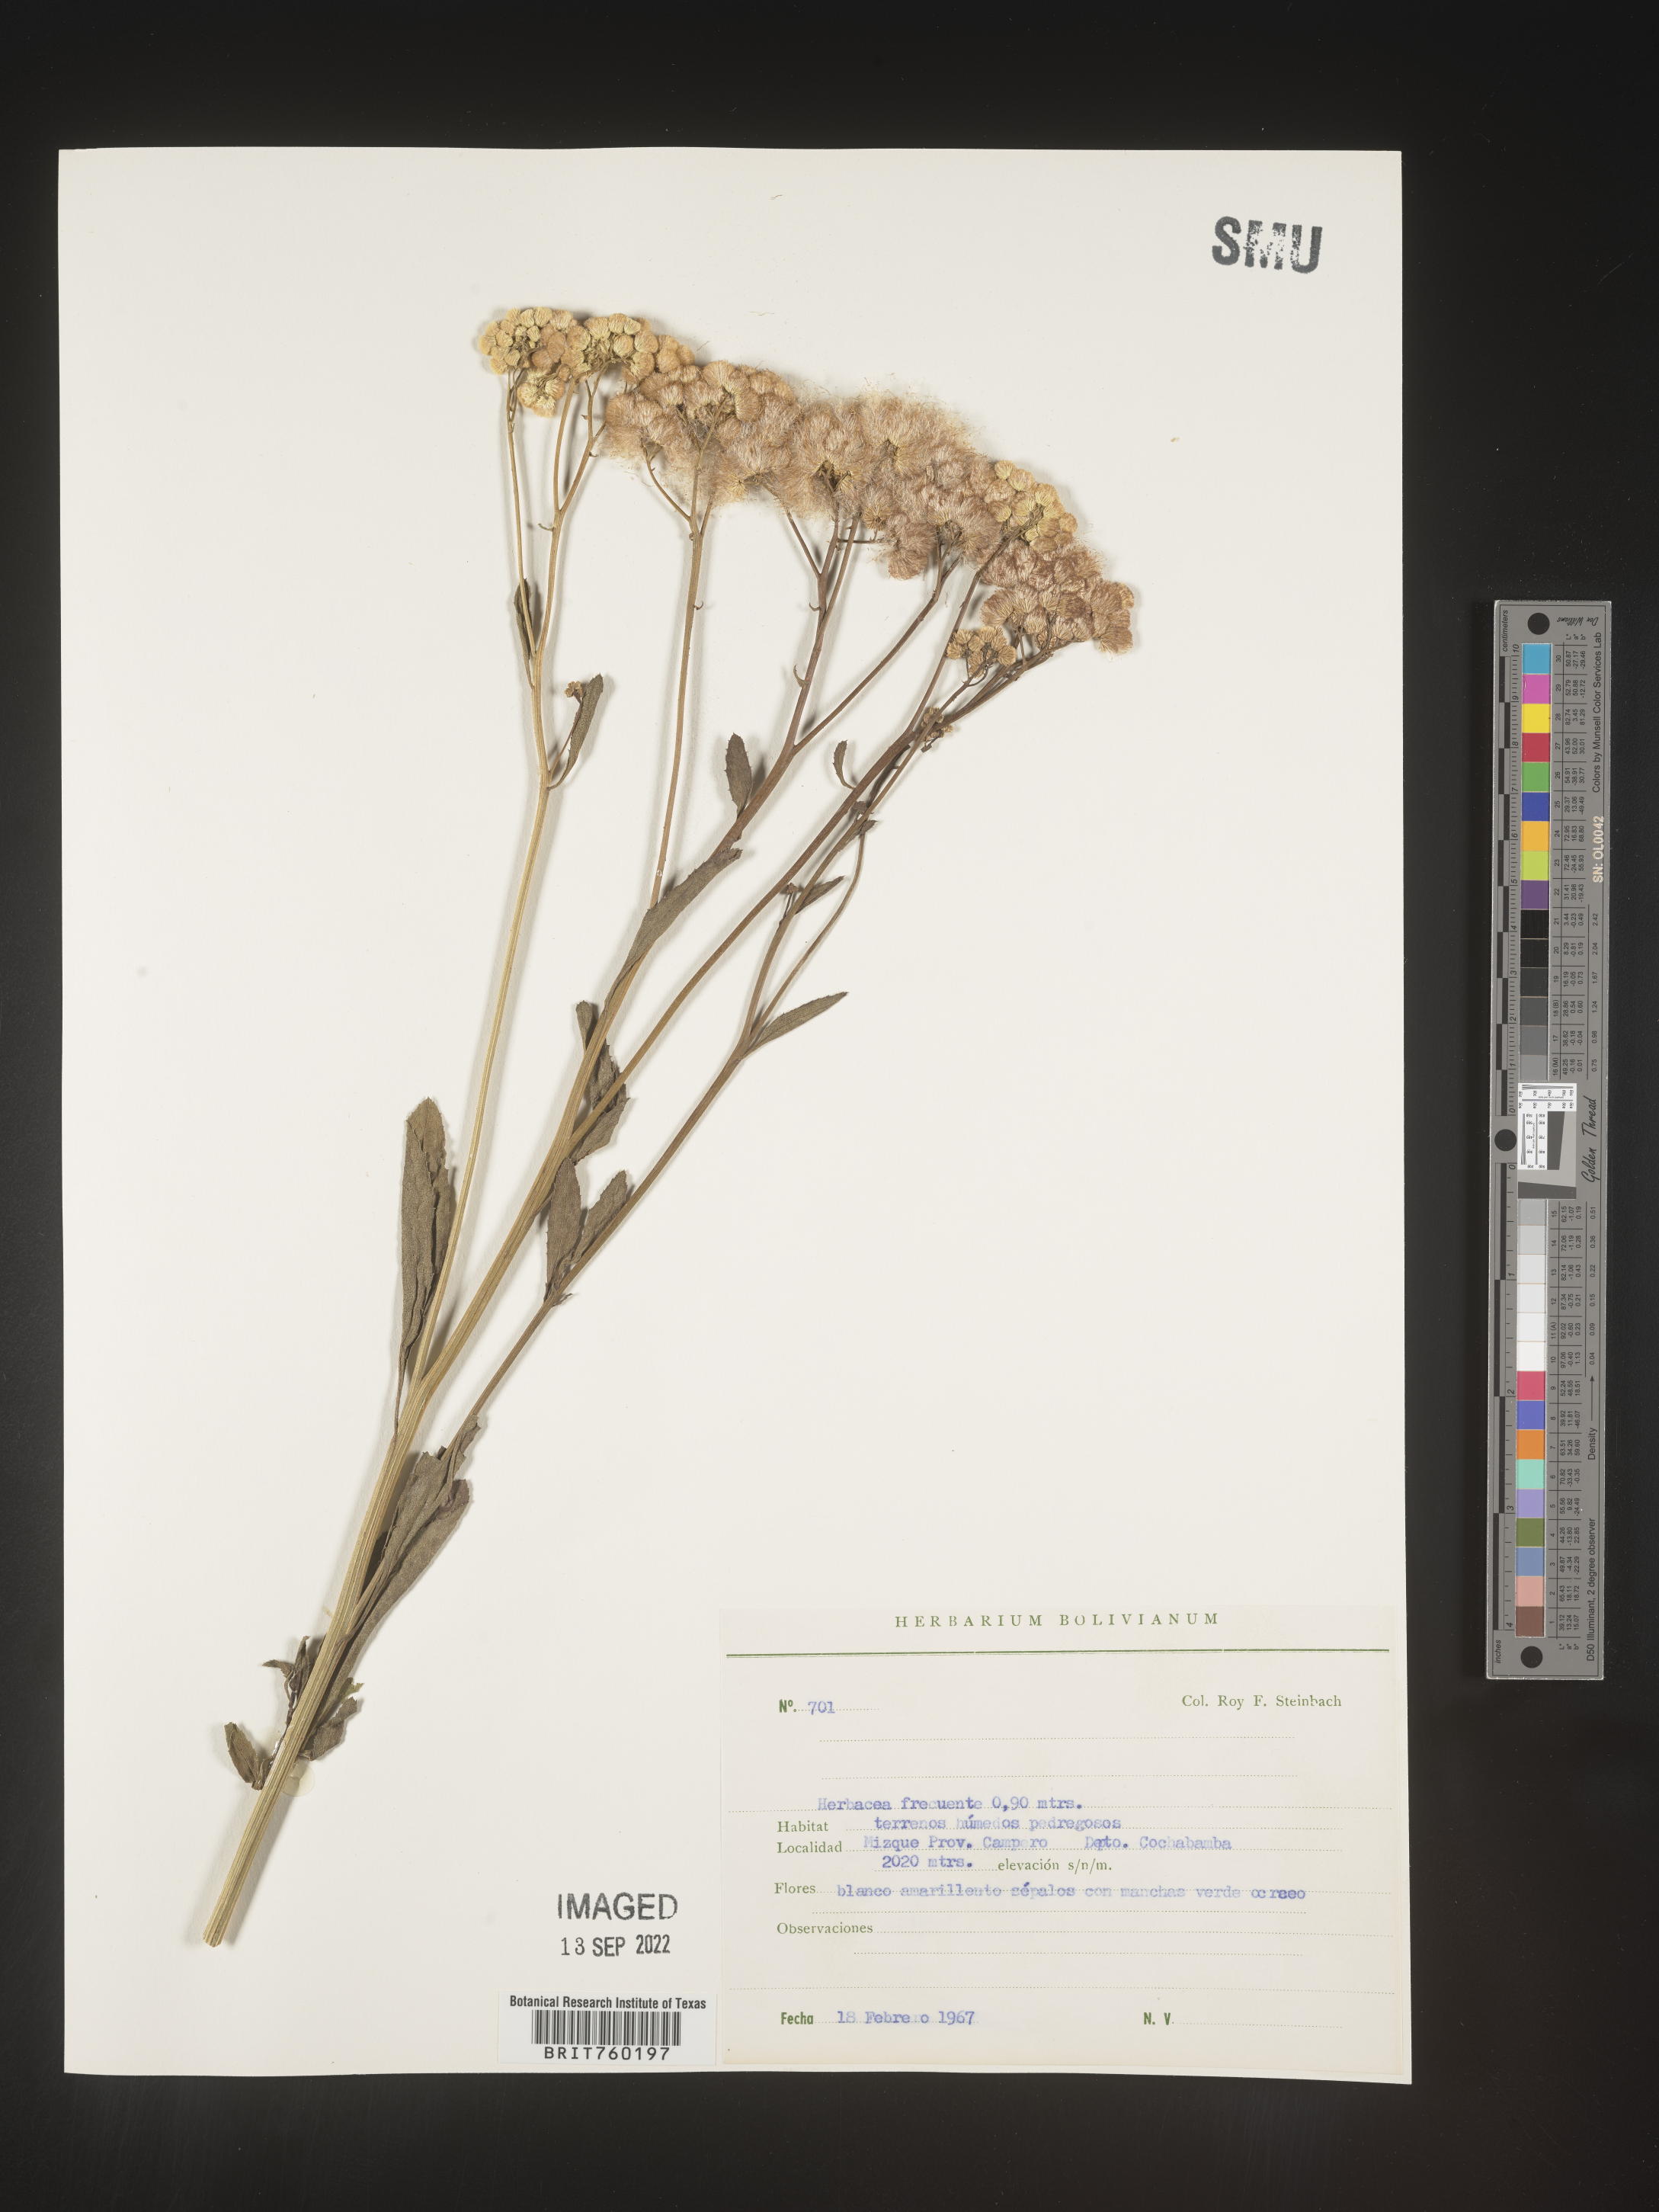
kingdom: Plantae
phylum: Tracheophyta
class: Magnoliopsida
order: Asterales
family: Asteraceae
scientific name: Asteraceae
